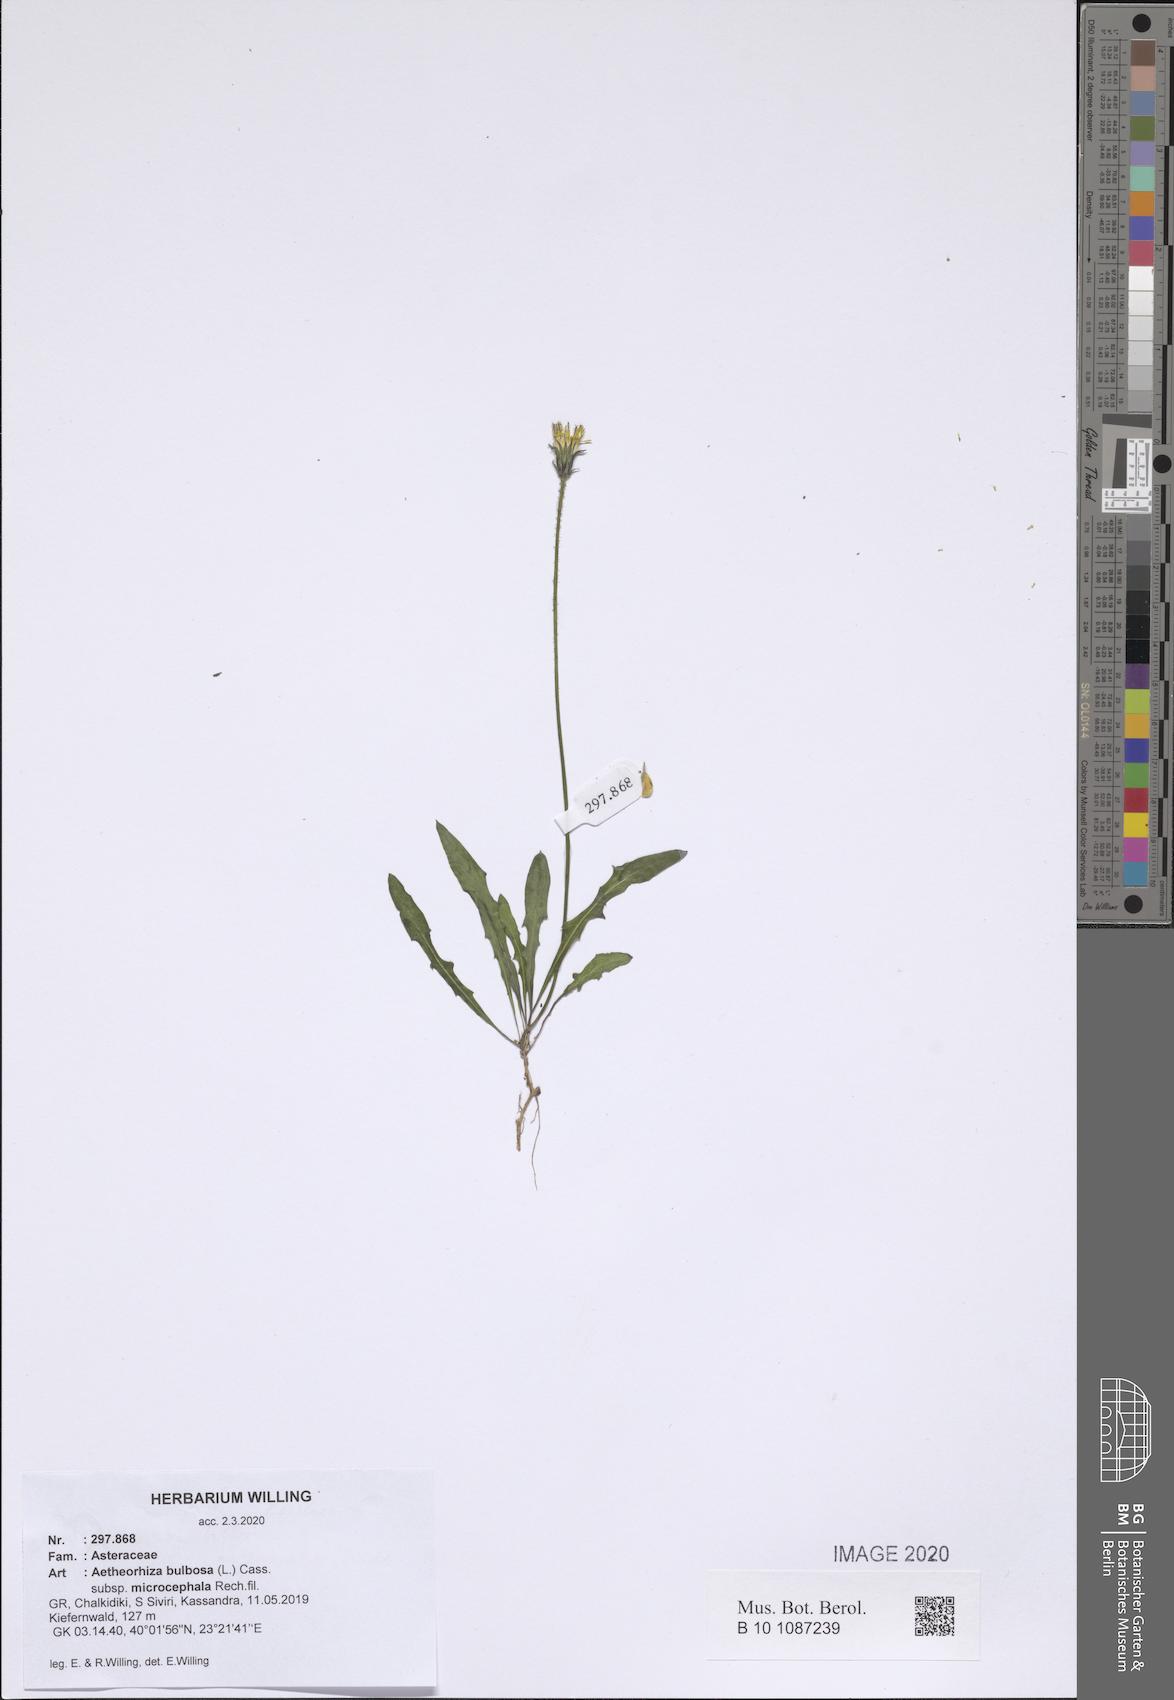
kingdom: Plantae
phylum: Tracheophyta
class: Magnoliopsida
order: Asterales
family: Asteraceae
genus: Aetheorhiza
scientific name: Aetheorhiza bulbosa
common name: Tuberous hawk's-beard
